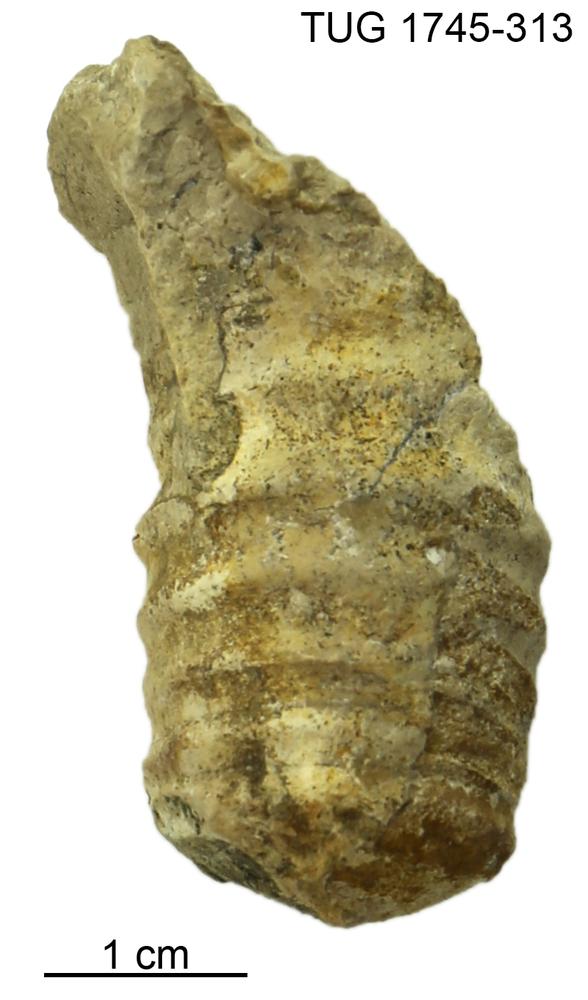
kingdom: Animalia
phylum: Mollusca
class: Cephalopoda
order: Orthocerida
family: Pseudorthoceratidae
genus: Spyroceras
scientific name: Spyroceras
